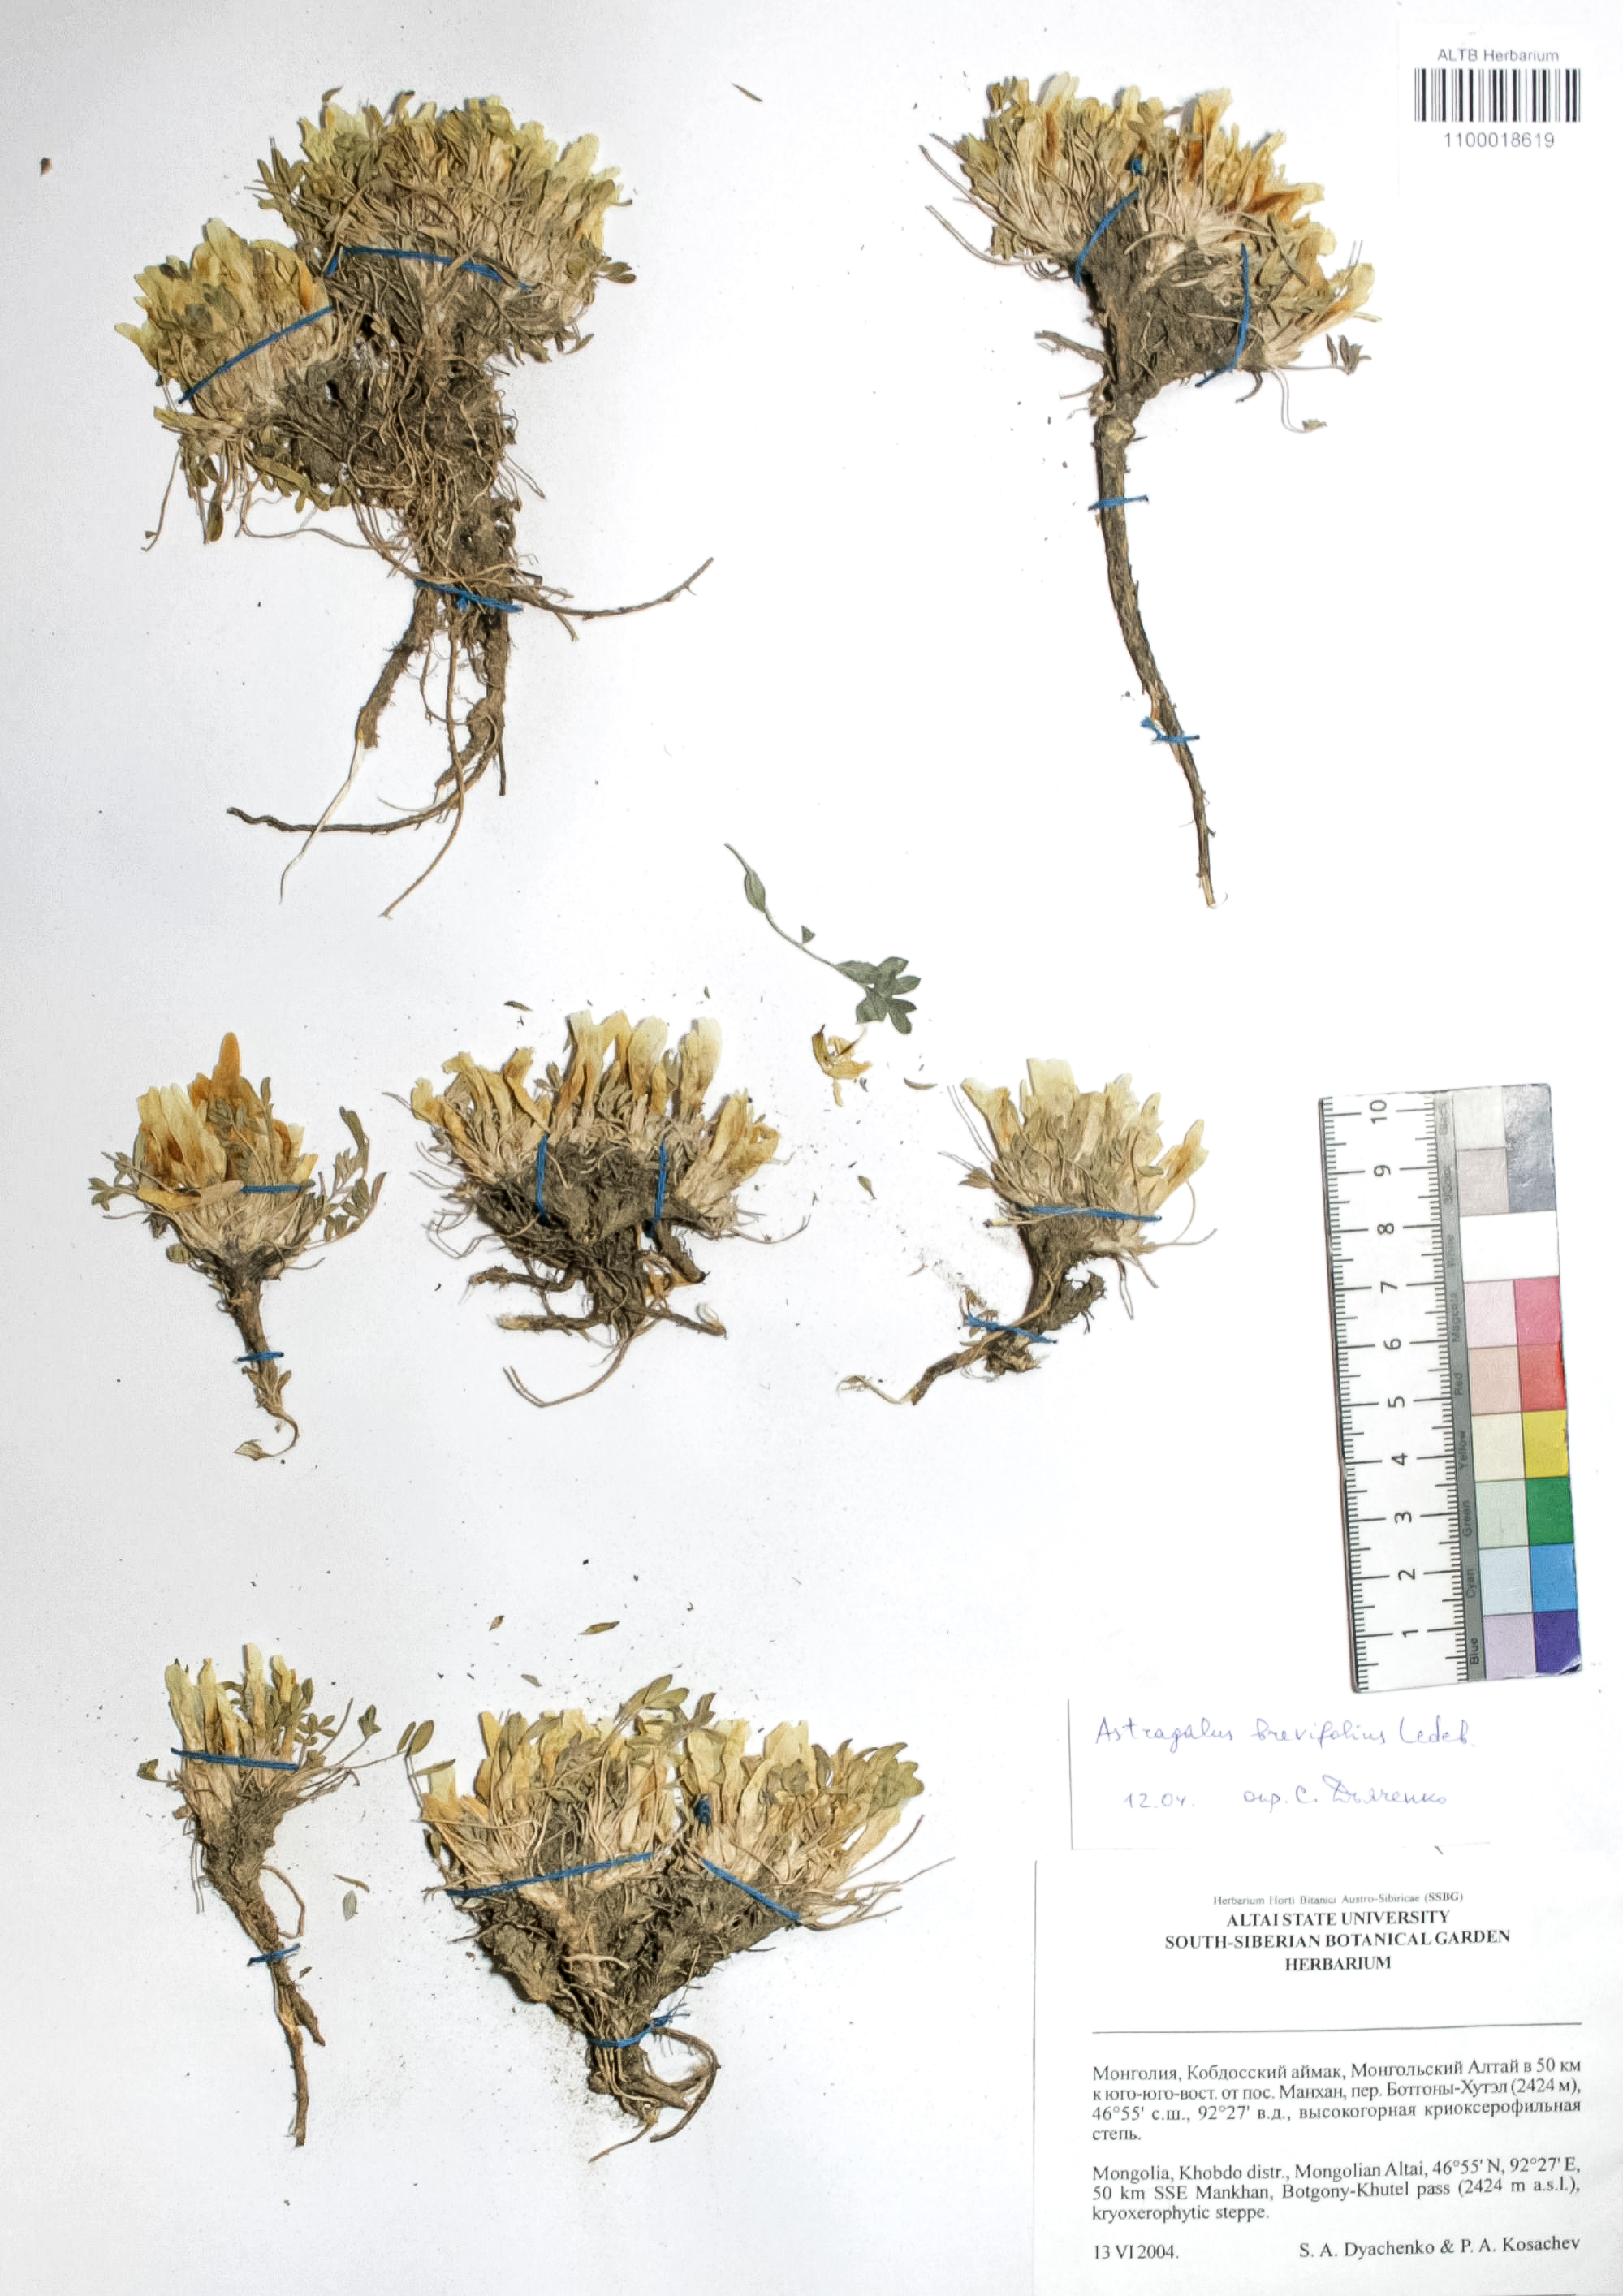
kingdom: Plantae
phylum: Tracheophyta
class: Magnoliopsida
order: Fabales
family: Fabaceae
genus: Astragalus
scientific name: Astragalus brevifolius
